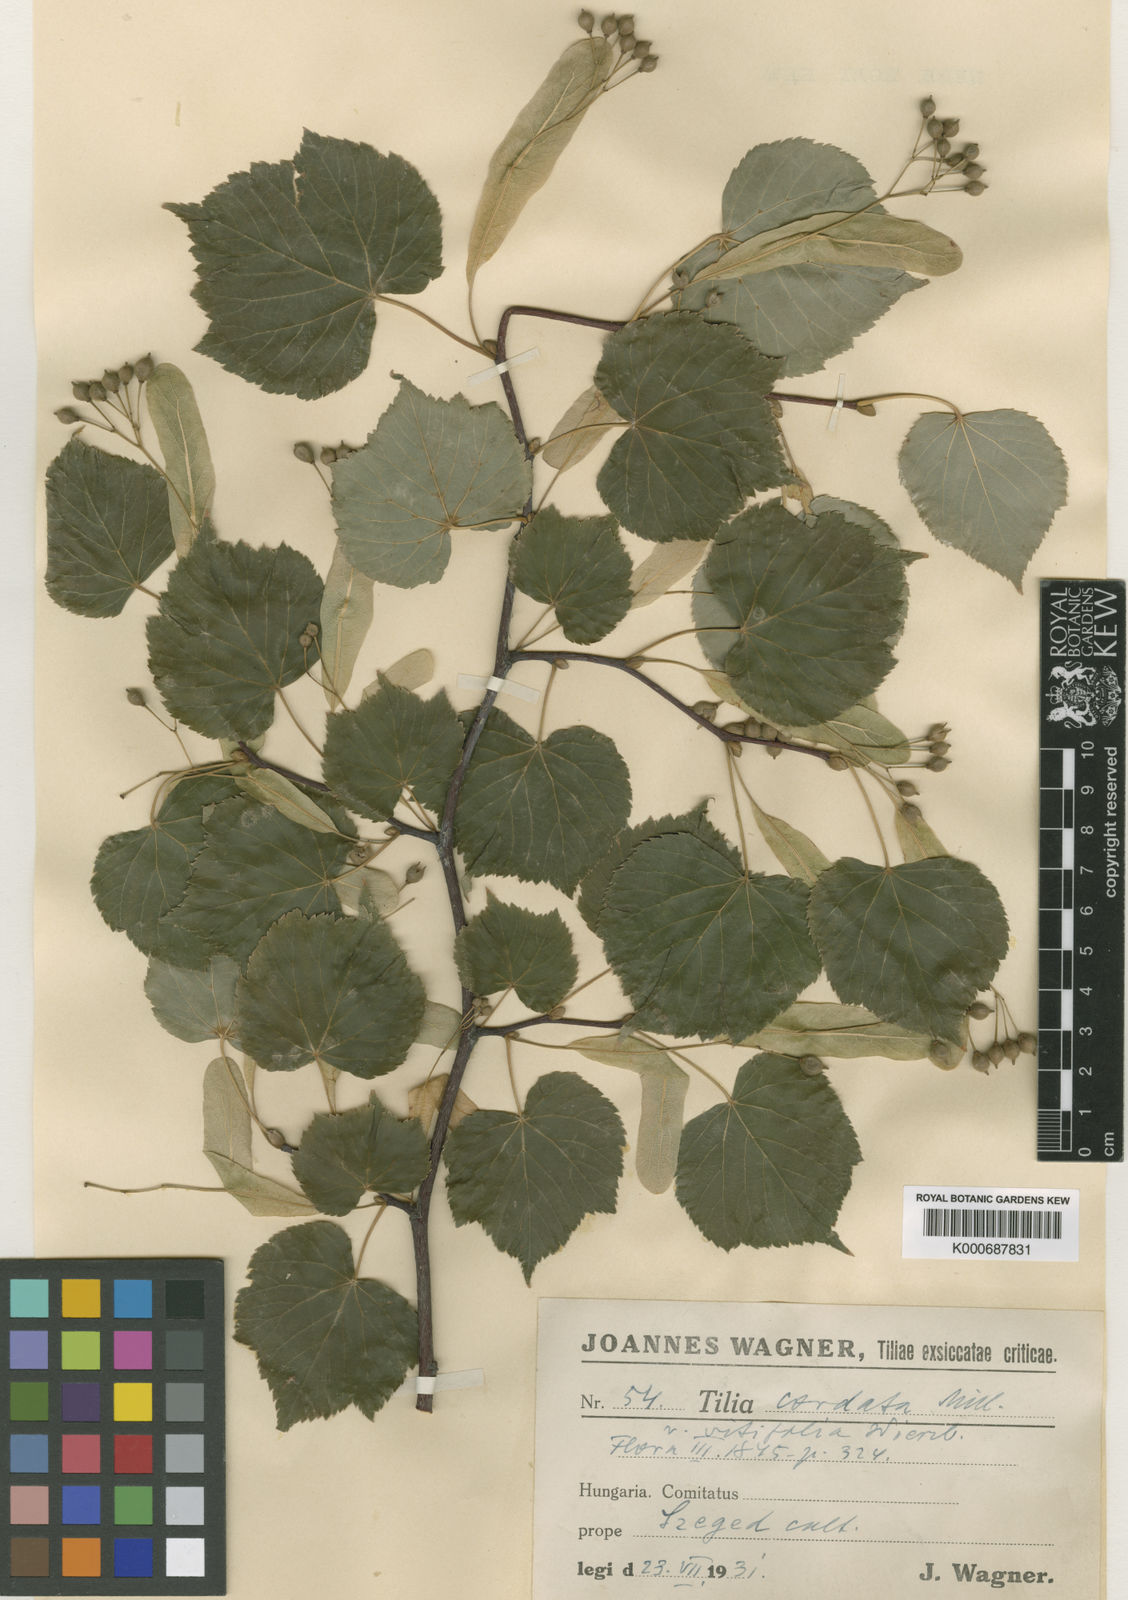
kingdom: Plantae
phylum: Tracheophyta
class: Magnoliopsida
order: Malvales
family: Malvaceae
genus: Tilia
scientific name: Tilia cordata
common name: Small-leaved lime
